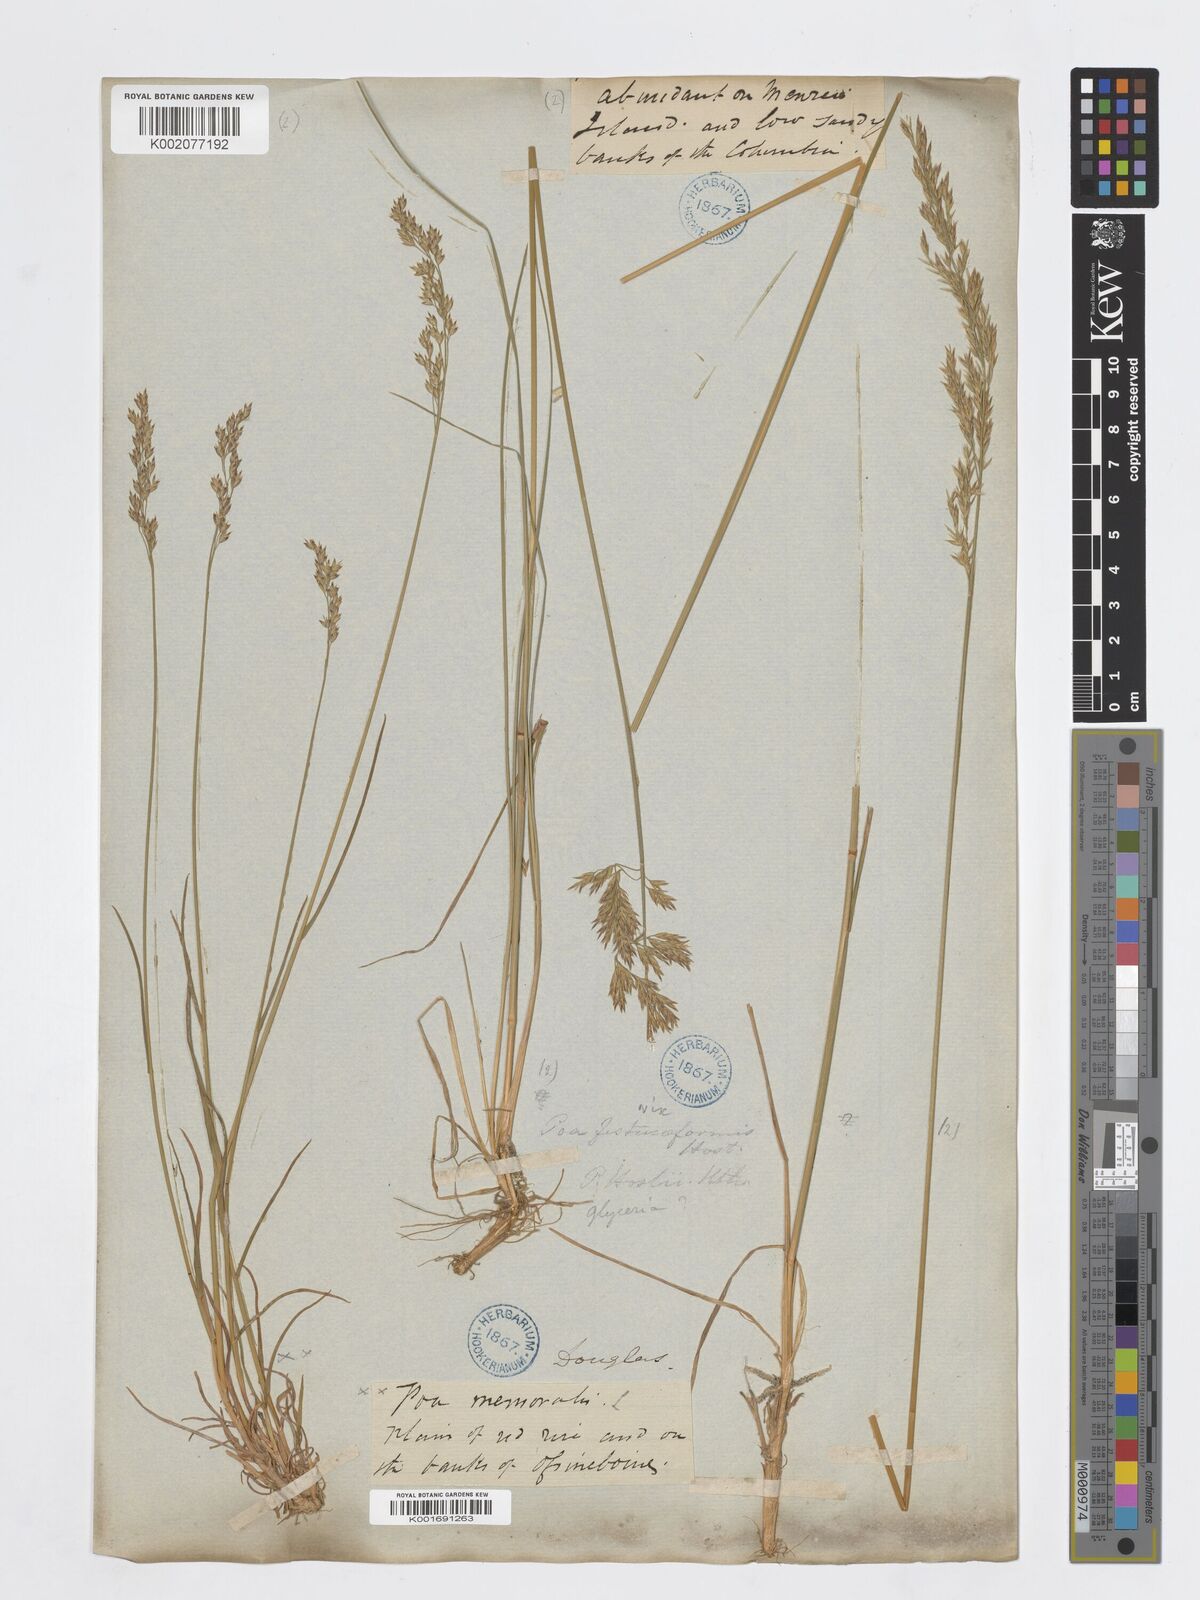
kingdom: Plantae
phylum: Tracheophyta
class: Liliopsida
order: Poales
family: Poaceae
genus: Poa
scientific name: Poa nemoralis
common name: Wood bluegrass
